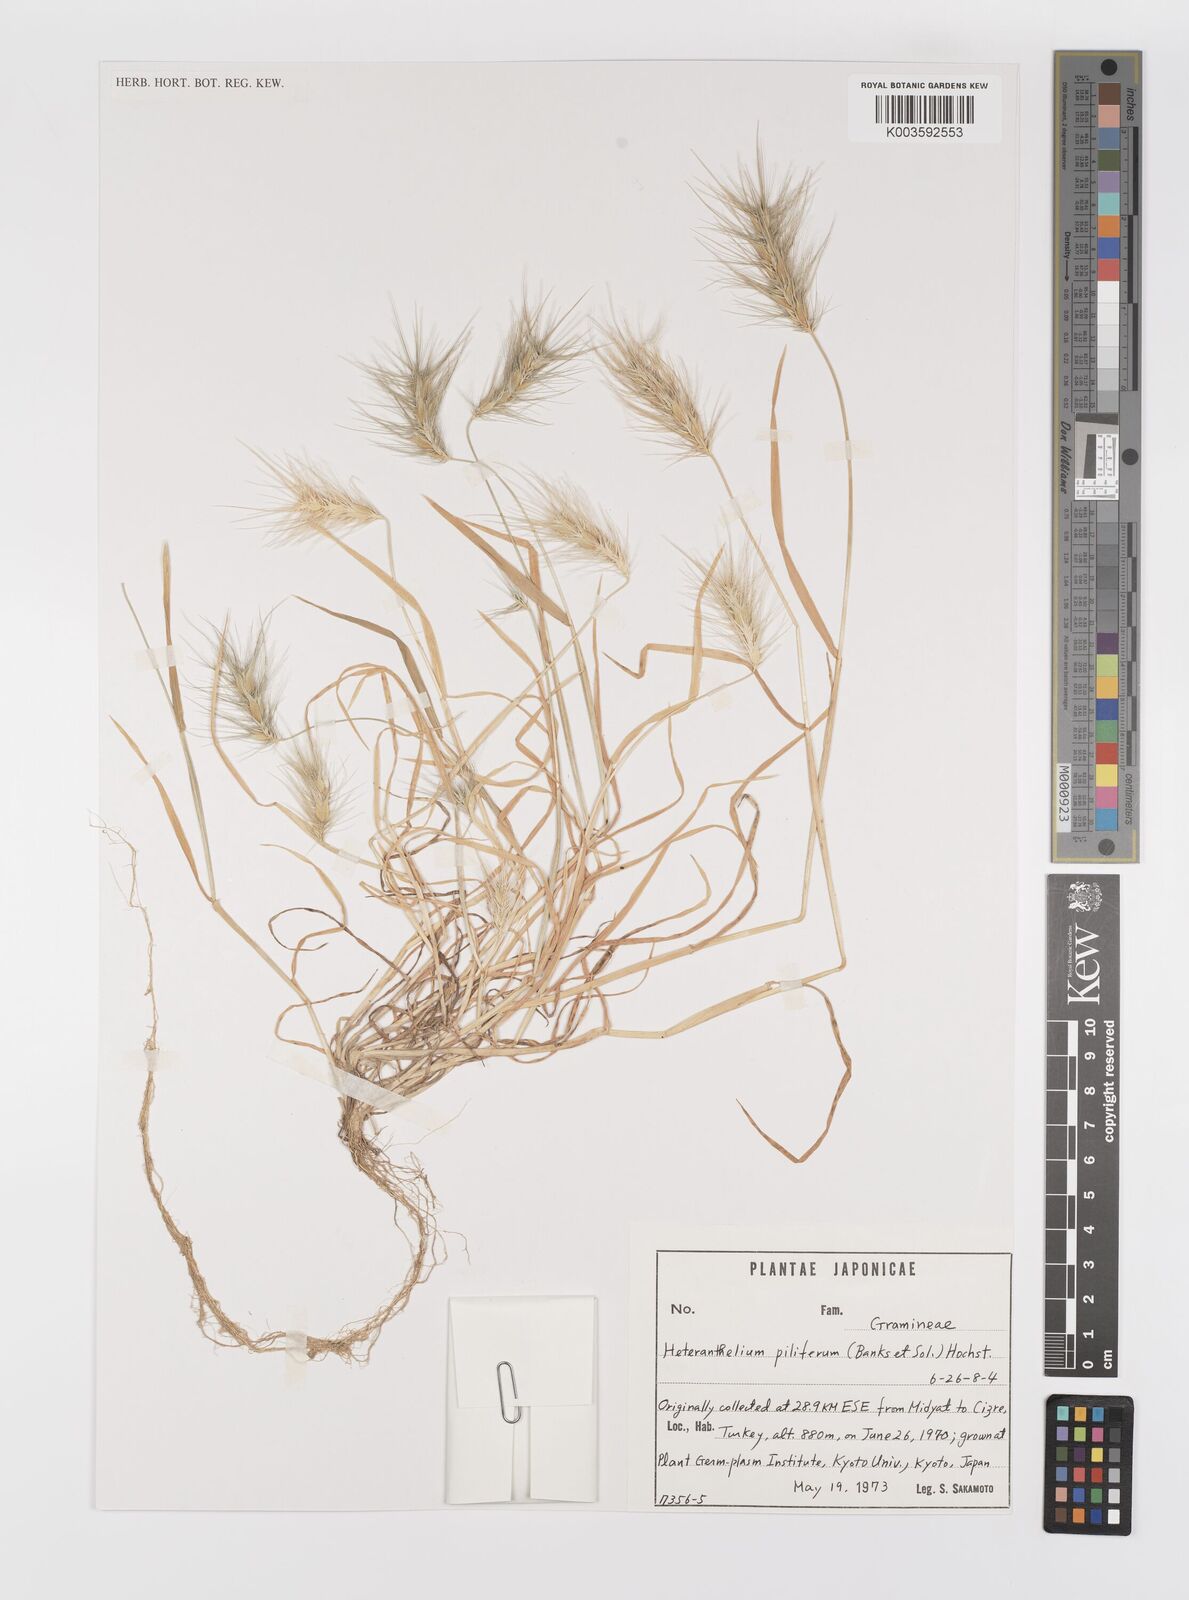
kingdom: Plantae
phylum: Tracheophyta
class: Liliopsida
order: Poales
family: Poaceae
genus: Heteranthelium
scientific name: Heteranthelium piliferum
